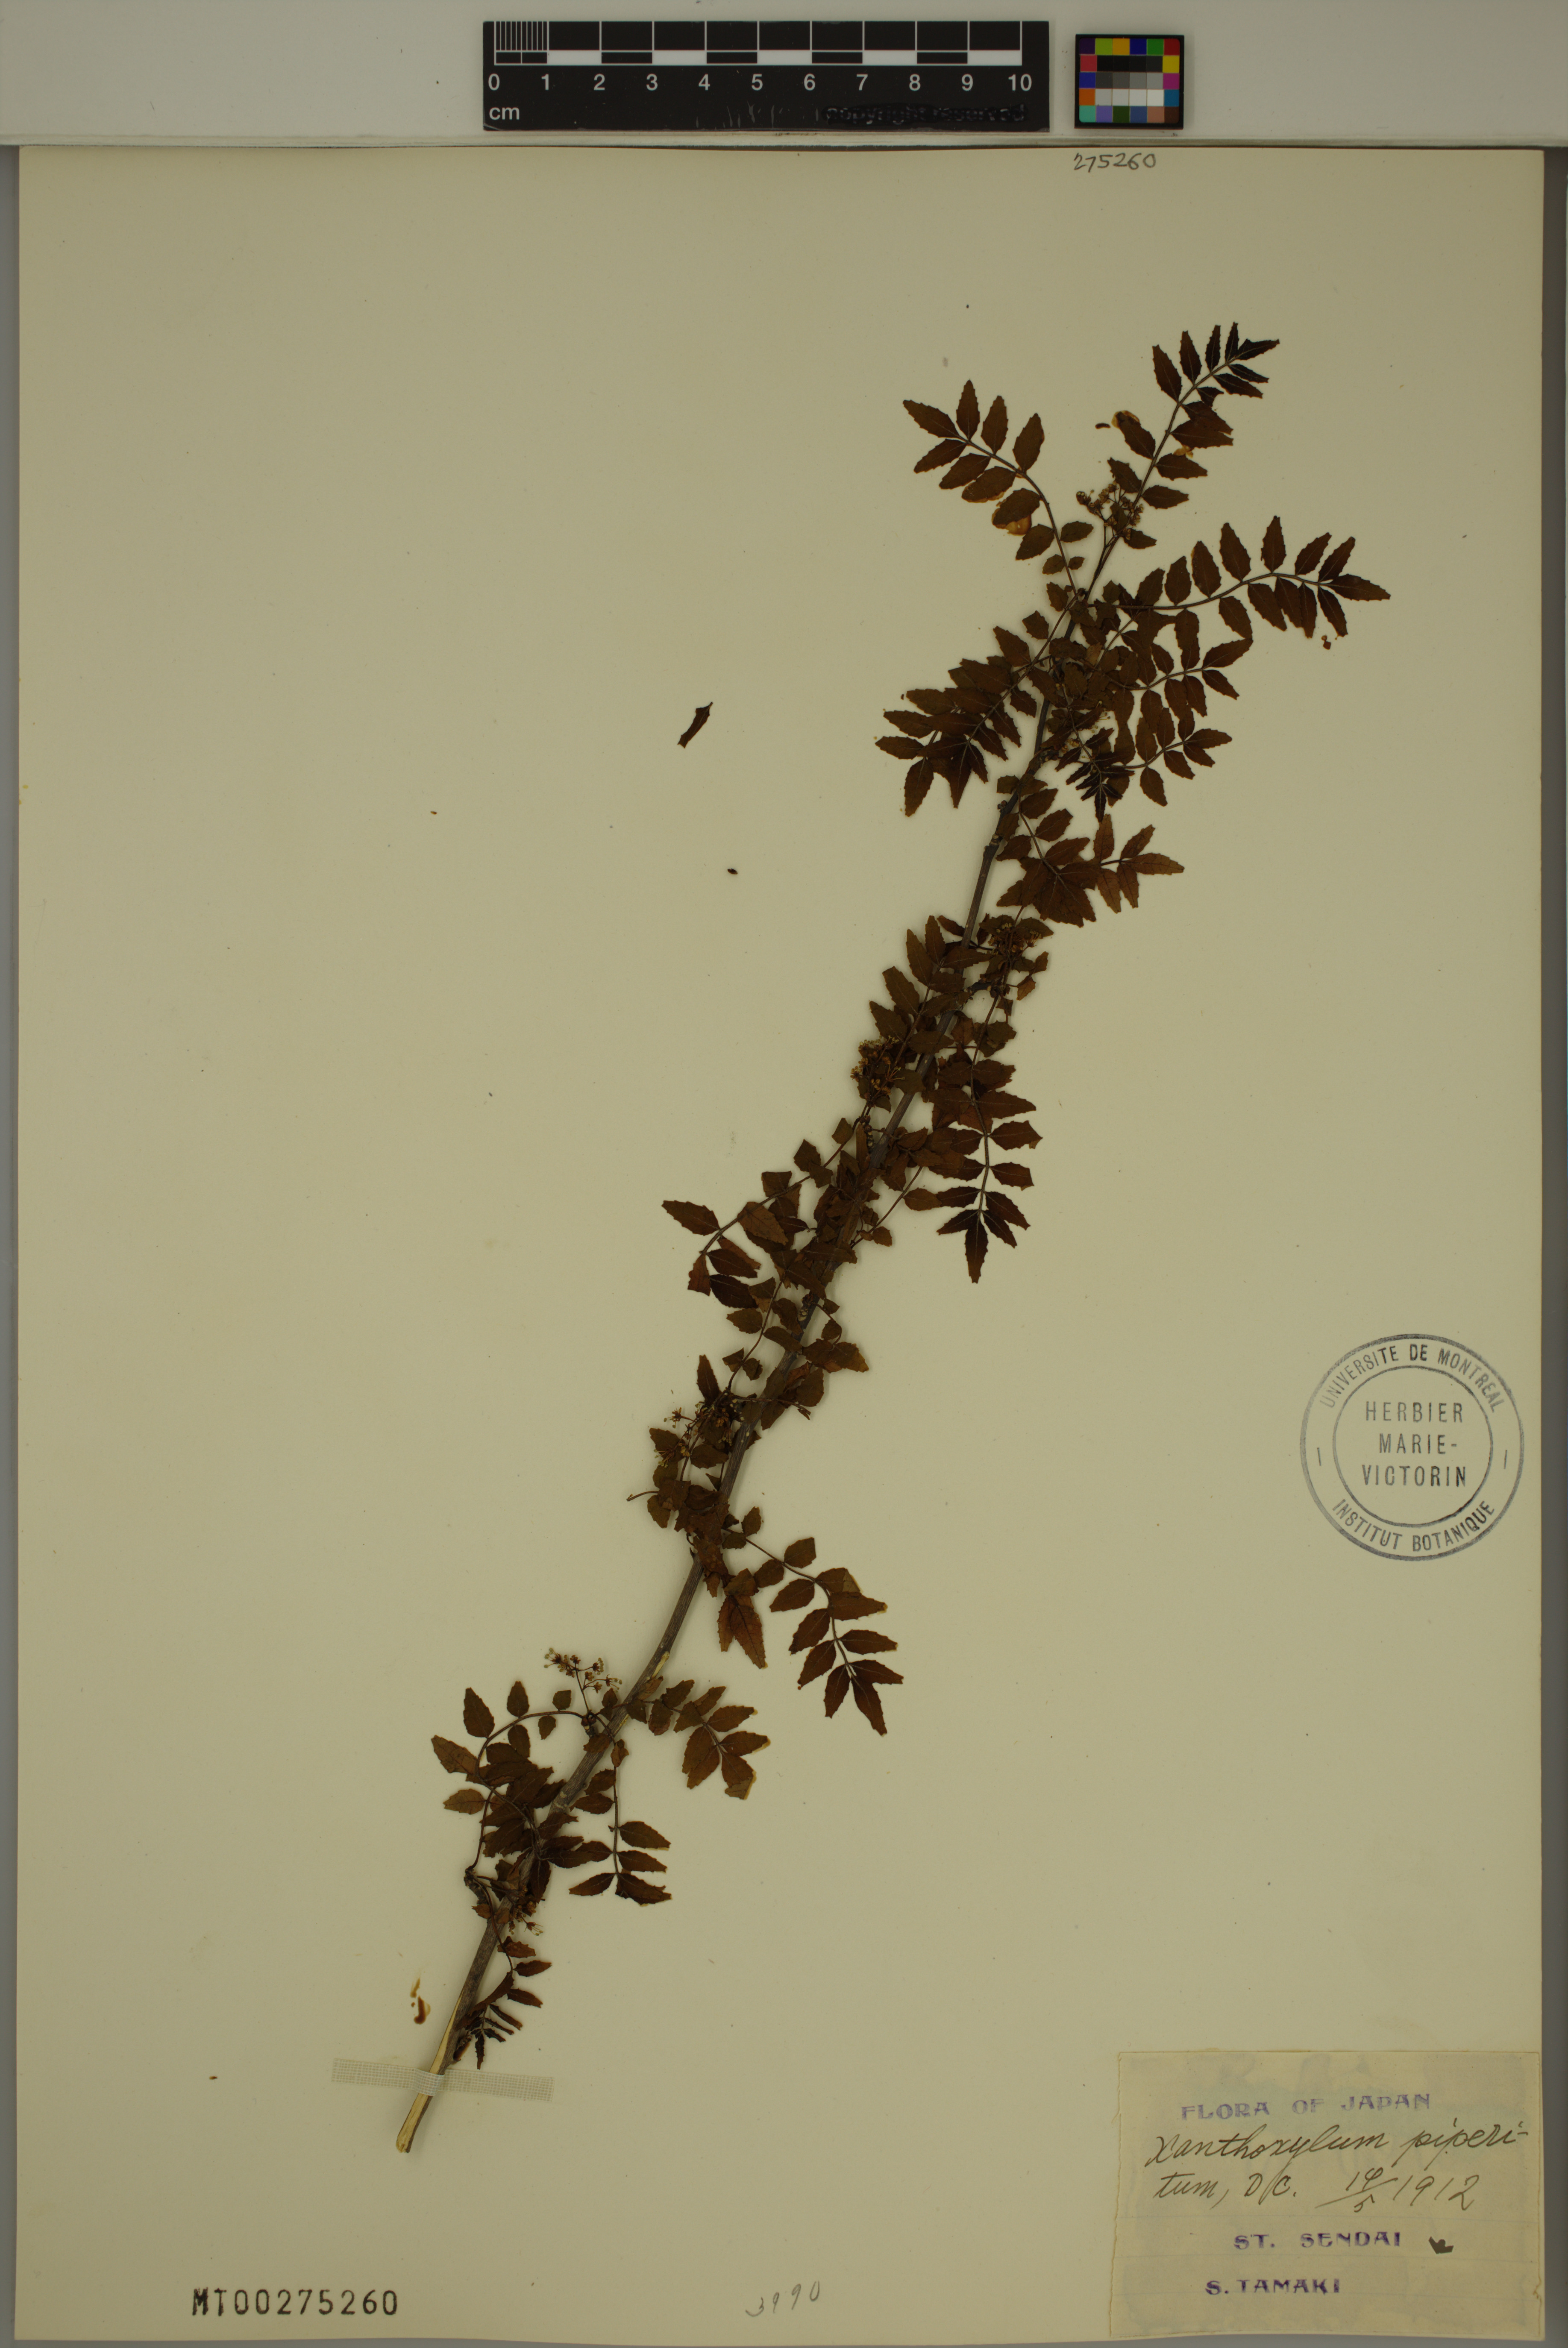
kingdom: Plantae
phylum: Tracheophyta
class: Magnoliopsida
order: Sapindales
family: Rutaceae
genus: Zanthoxylum
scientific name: Zanthoxylum piperitum
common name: Japanese-pepper
